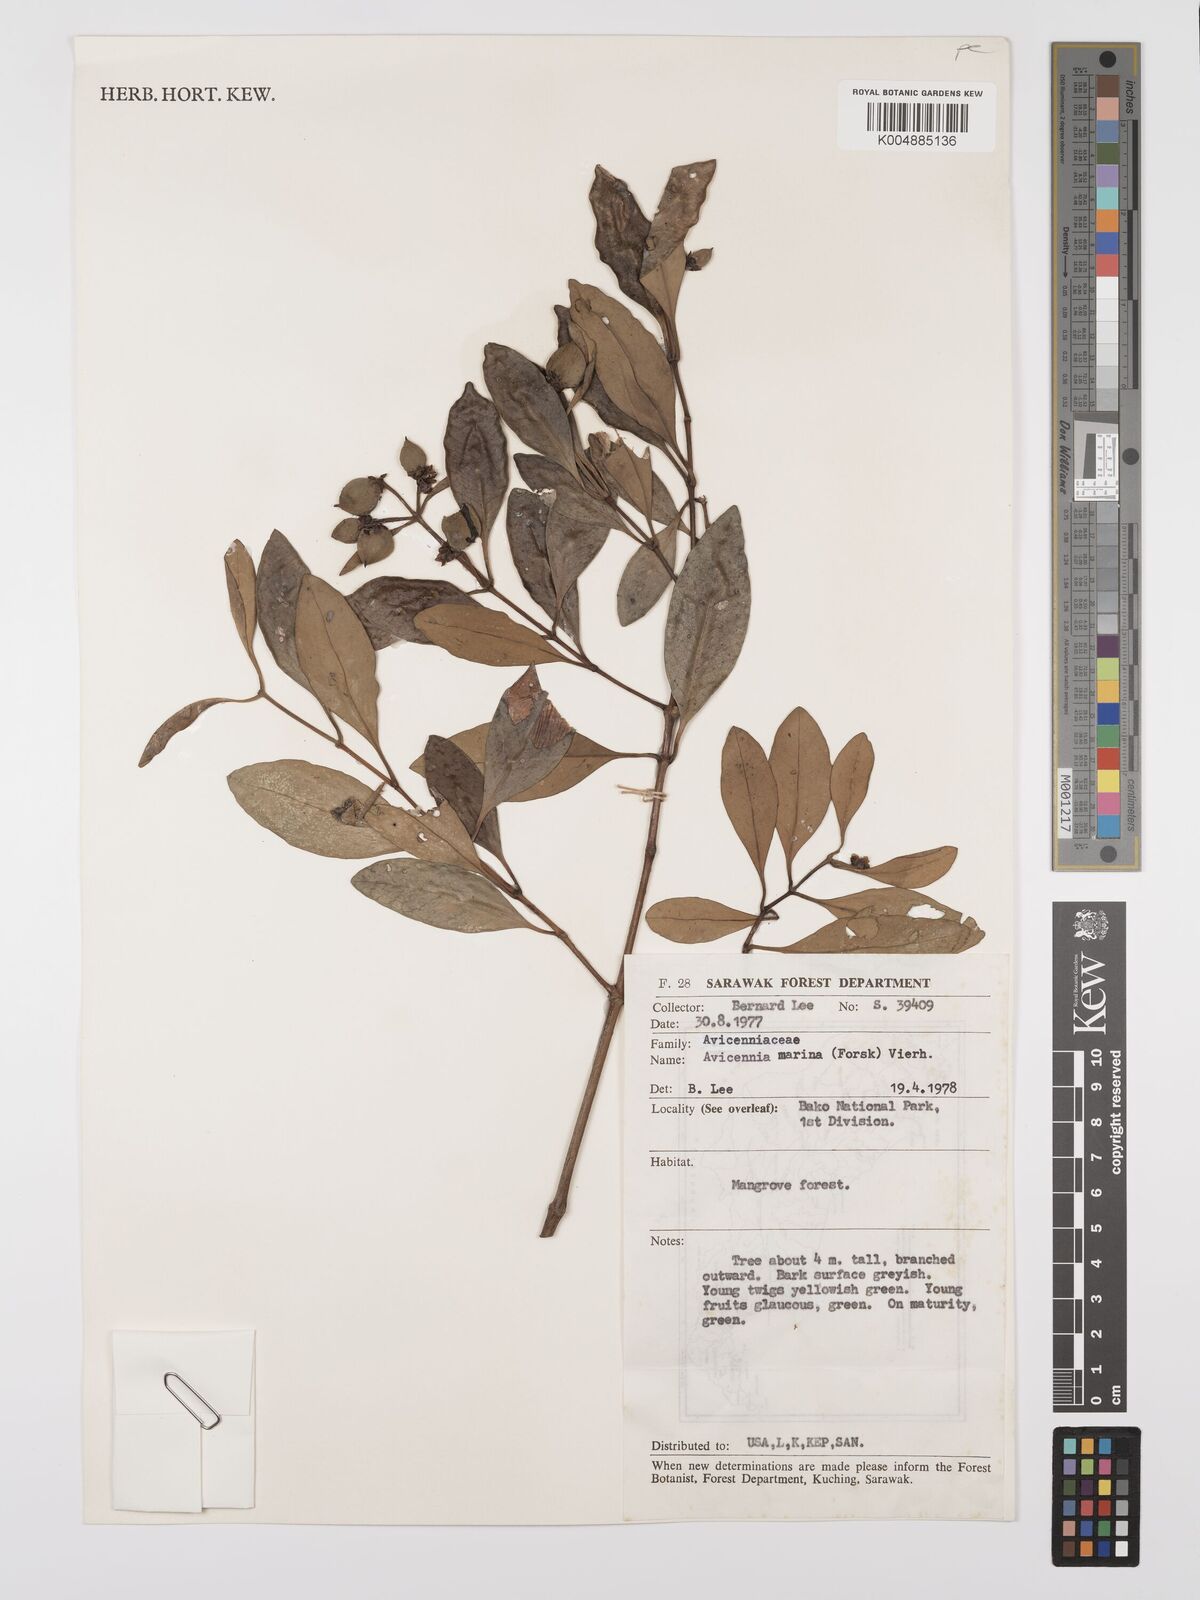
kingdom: Plantae
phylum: Tracheophyta
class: Magnoliopsida
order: Lamiales
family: Acanthaceae
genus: Avicennia
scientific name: Avicennia marina
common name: Gray mangrove
